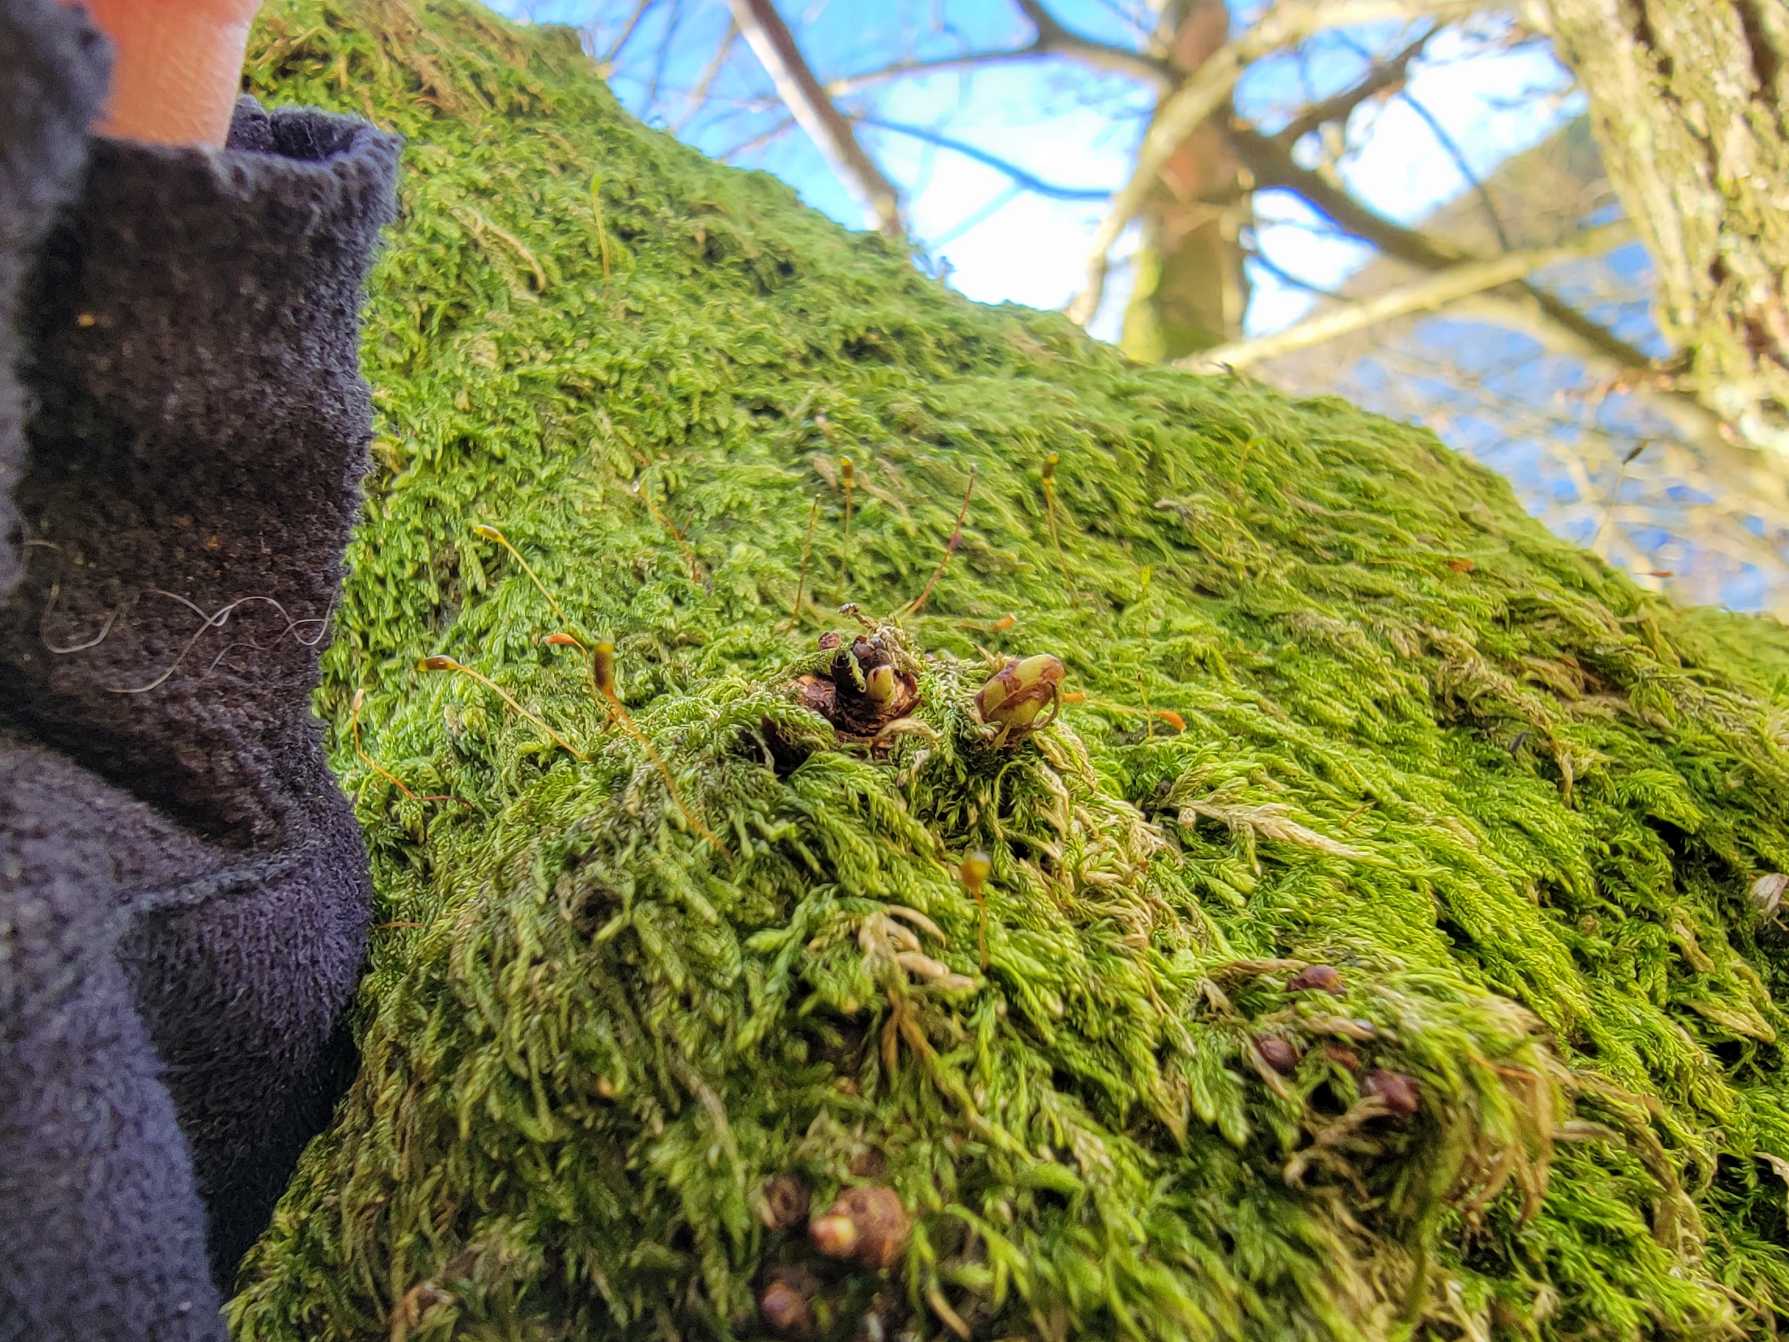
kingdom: Plantae
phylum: Bryophyta
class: Bryopsida
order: Hypnales
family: Hypnaceae
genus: Hypnum
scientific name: Hypnum andoi
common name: Vortet cypresmos
